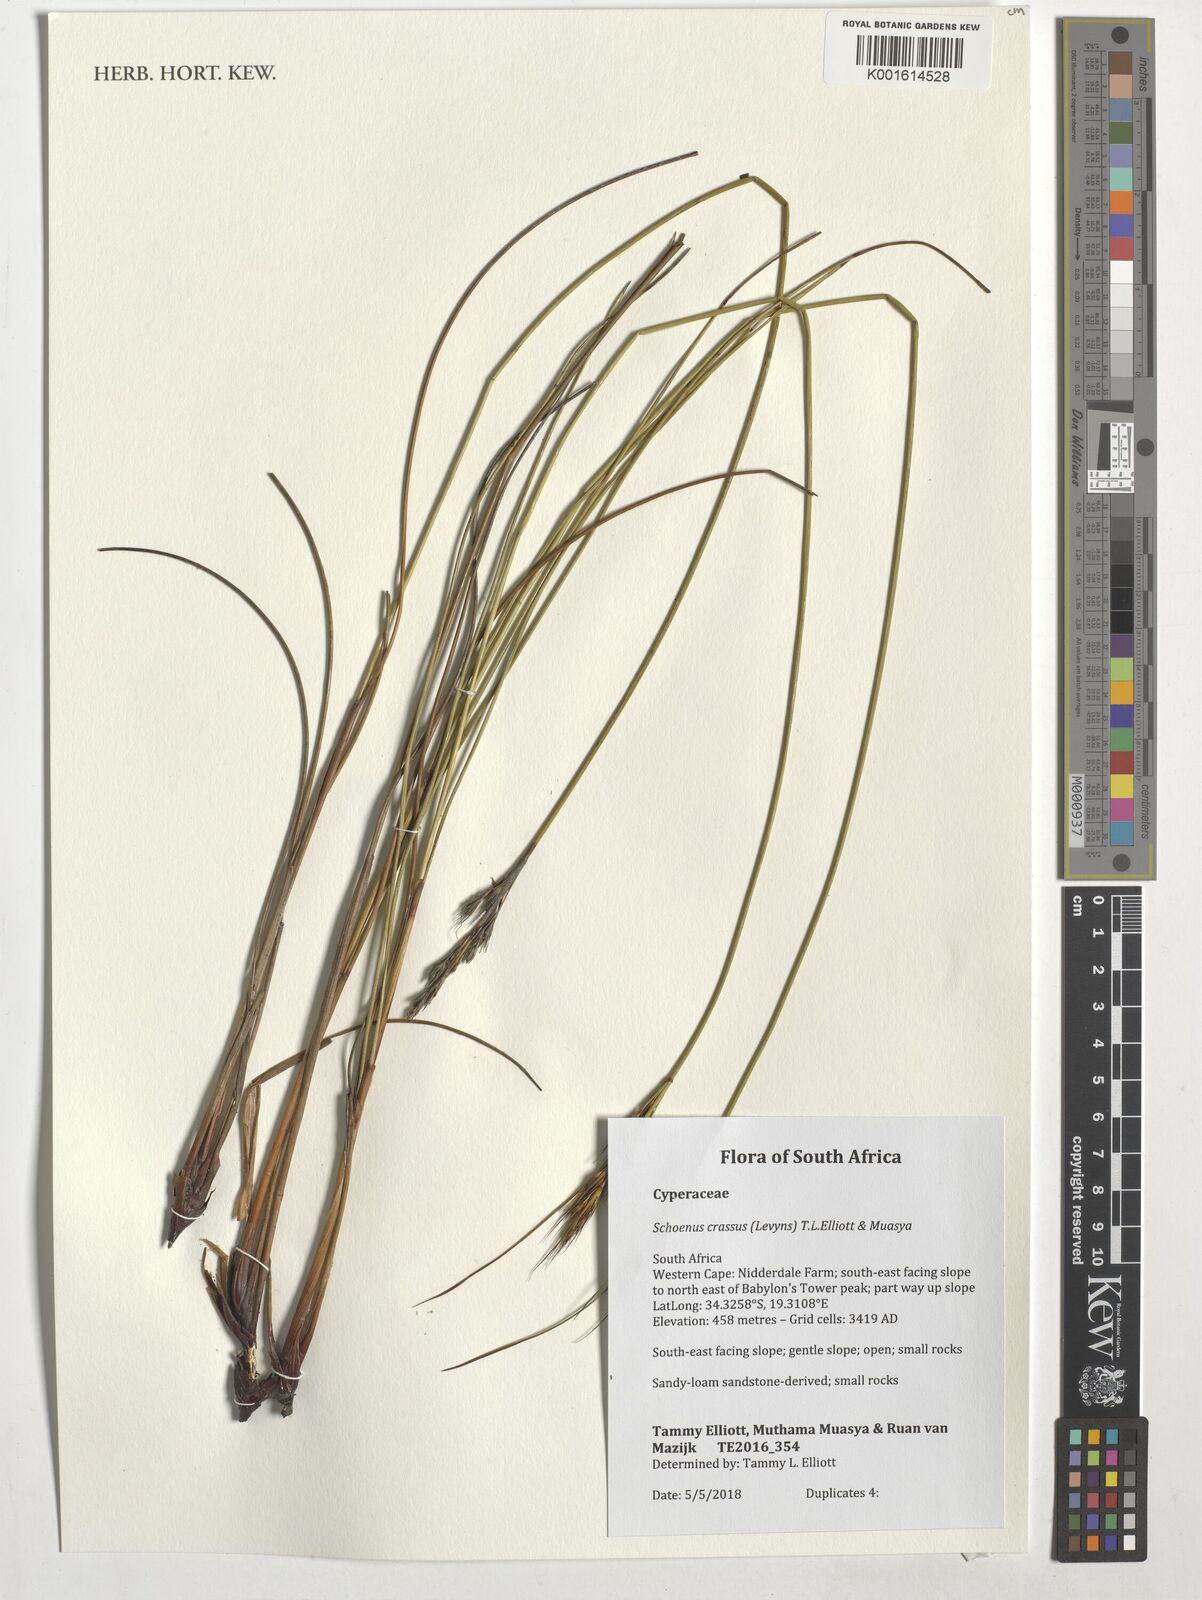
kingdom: Plantae
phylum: Tracheophyta
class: Liliopsida
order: Poales
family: Cyperaceae
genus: Schoenus
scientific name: Schoenus crassus
